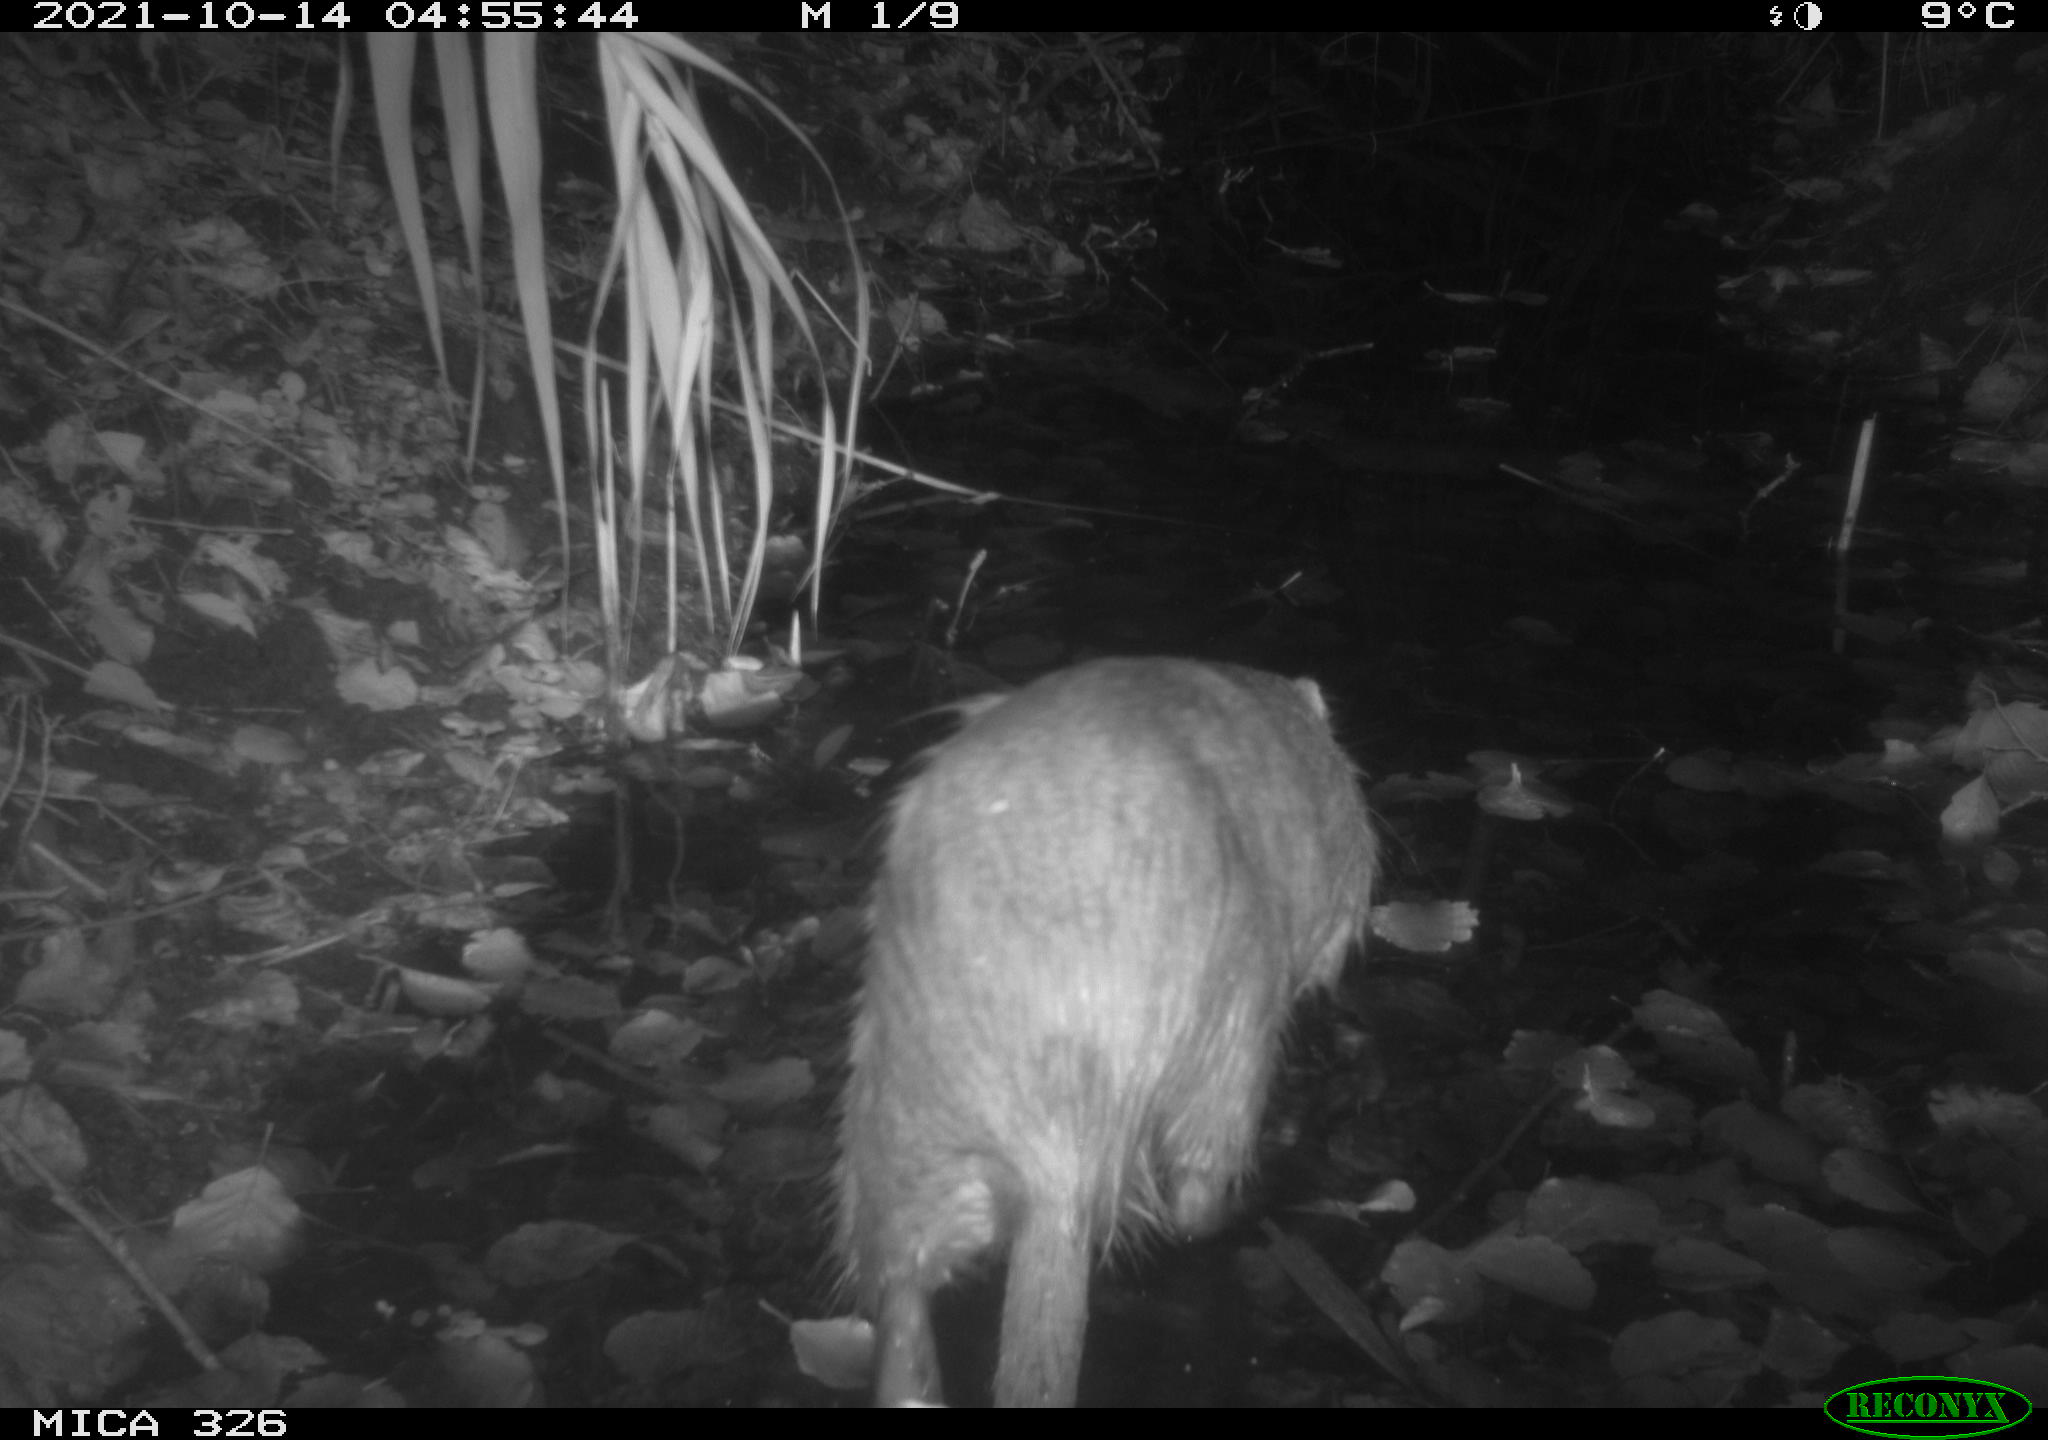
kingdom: Animalia
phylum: Chordata
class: Mammalia
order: Rodentia
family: Myocastoridae
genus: Myocastor
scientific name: Myocastor coypus
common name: Coypu
